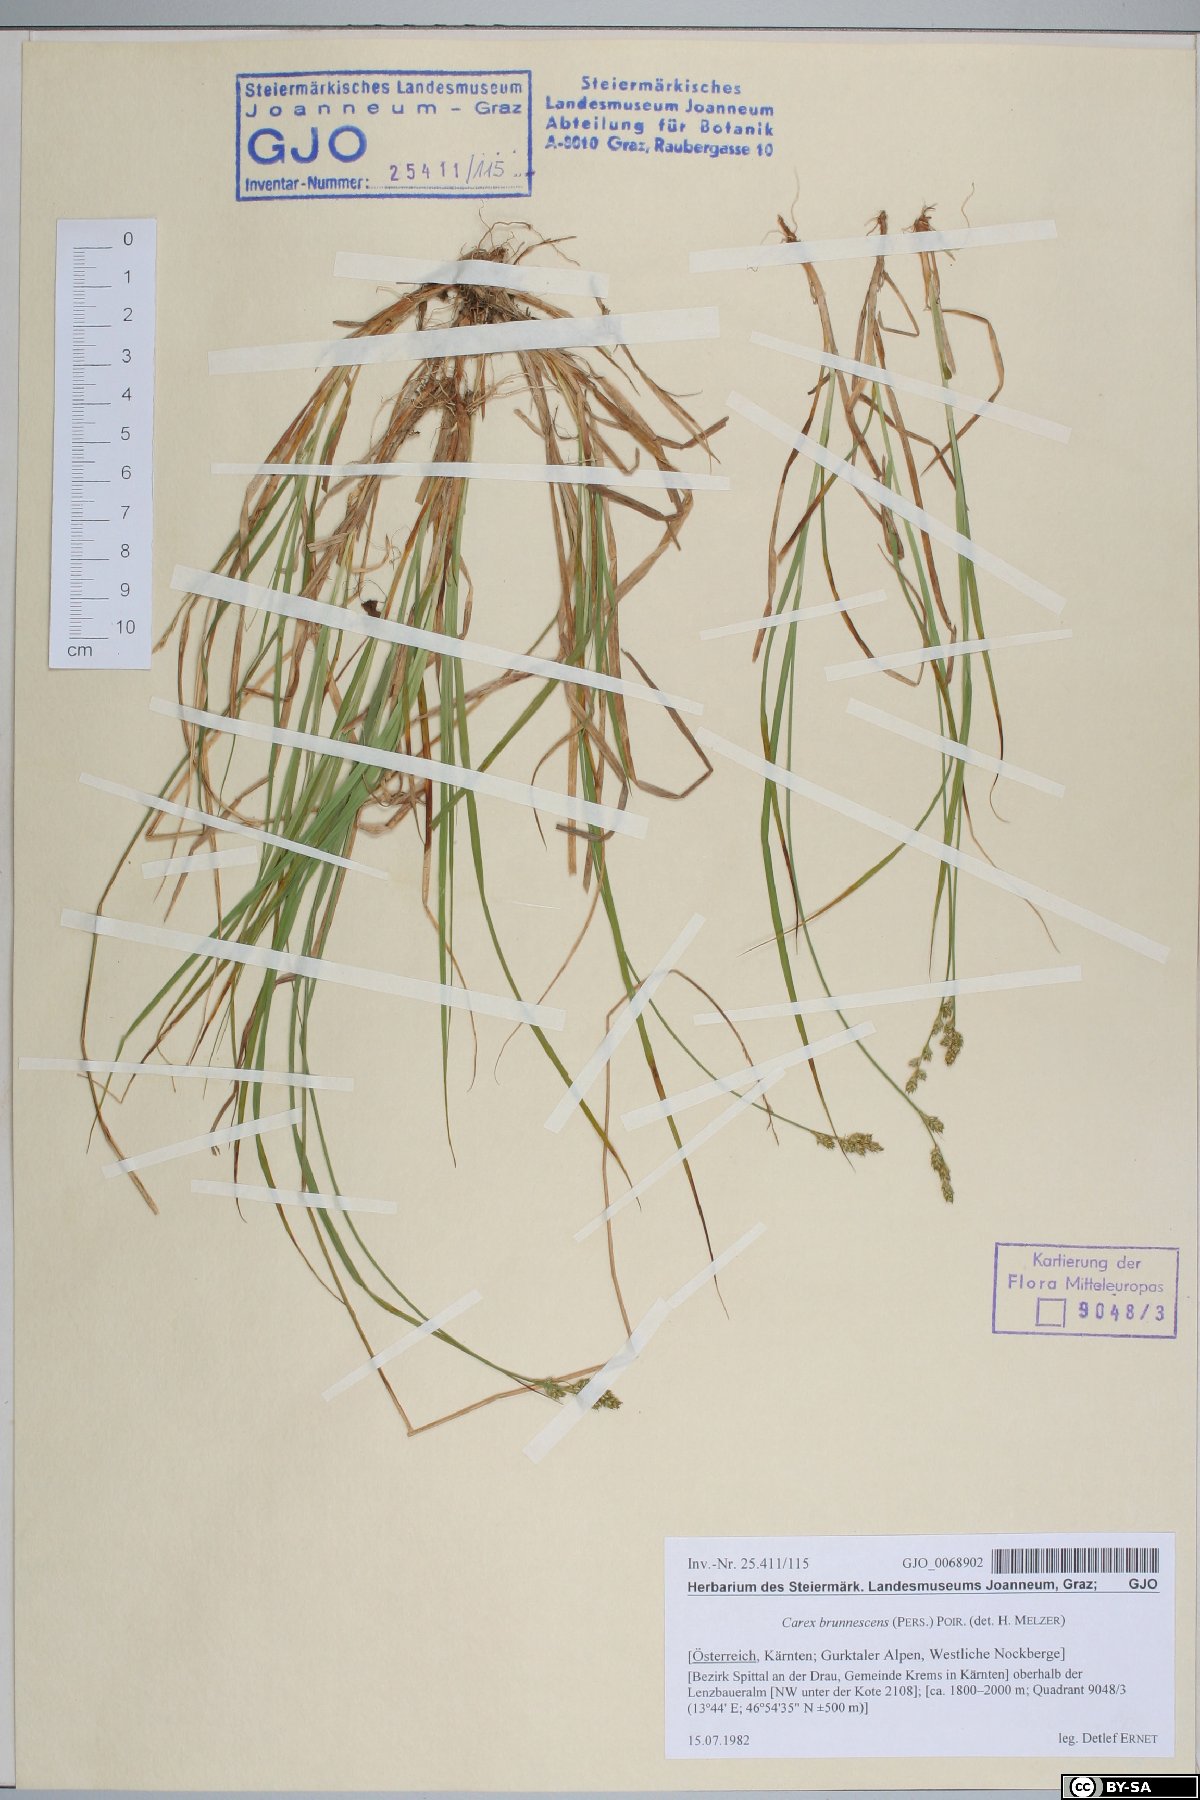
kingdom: Plantae
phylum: Tracheophyta
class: Liliopsida
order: Poales
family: Cyperaceae
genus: Carex
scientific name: Carex brunnescens
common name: Brown sedge
